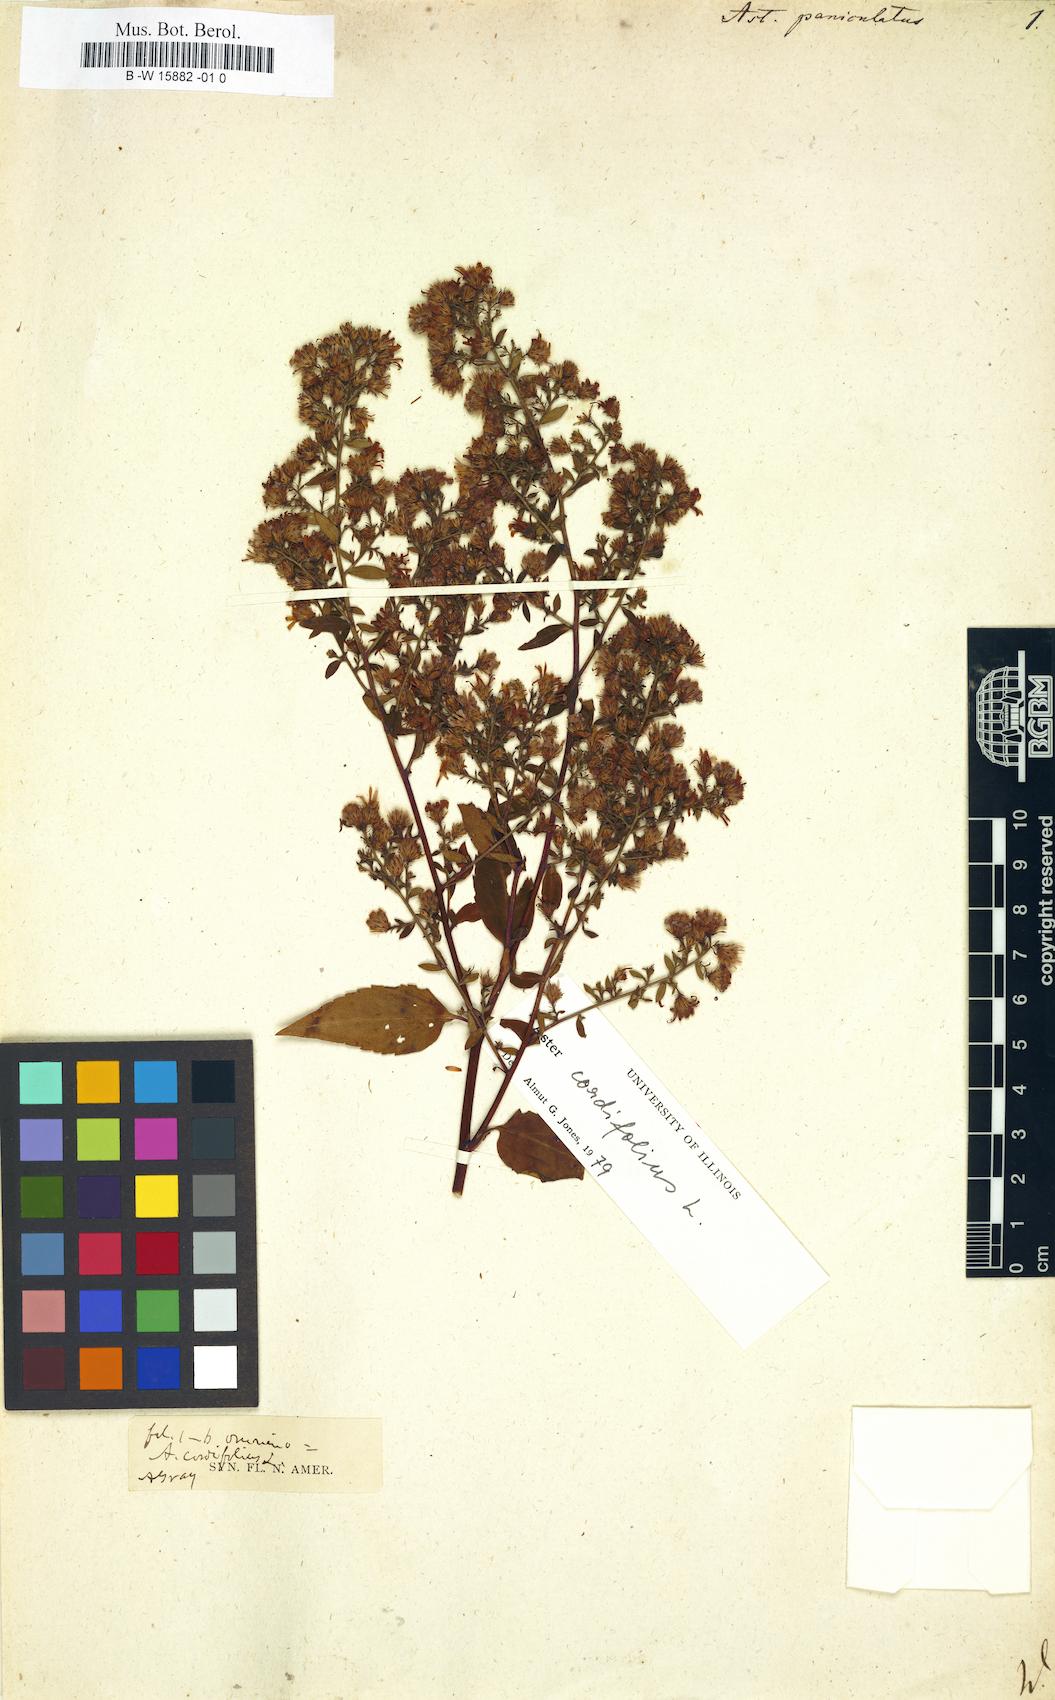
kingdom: Plantae
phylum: Tracheophyta
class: Magnoliopsida
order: Asterales
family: Asteraceae
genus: Symphyotrichum
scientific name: Symphyotrichum lanceolatum
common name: Panicled aster
